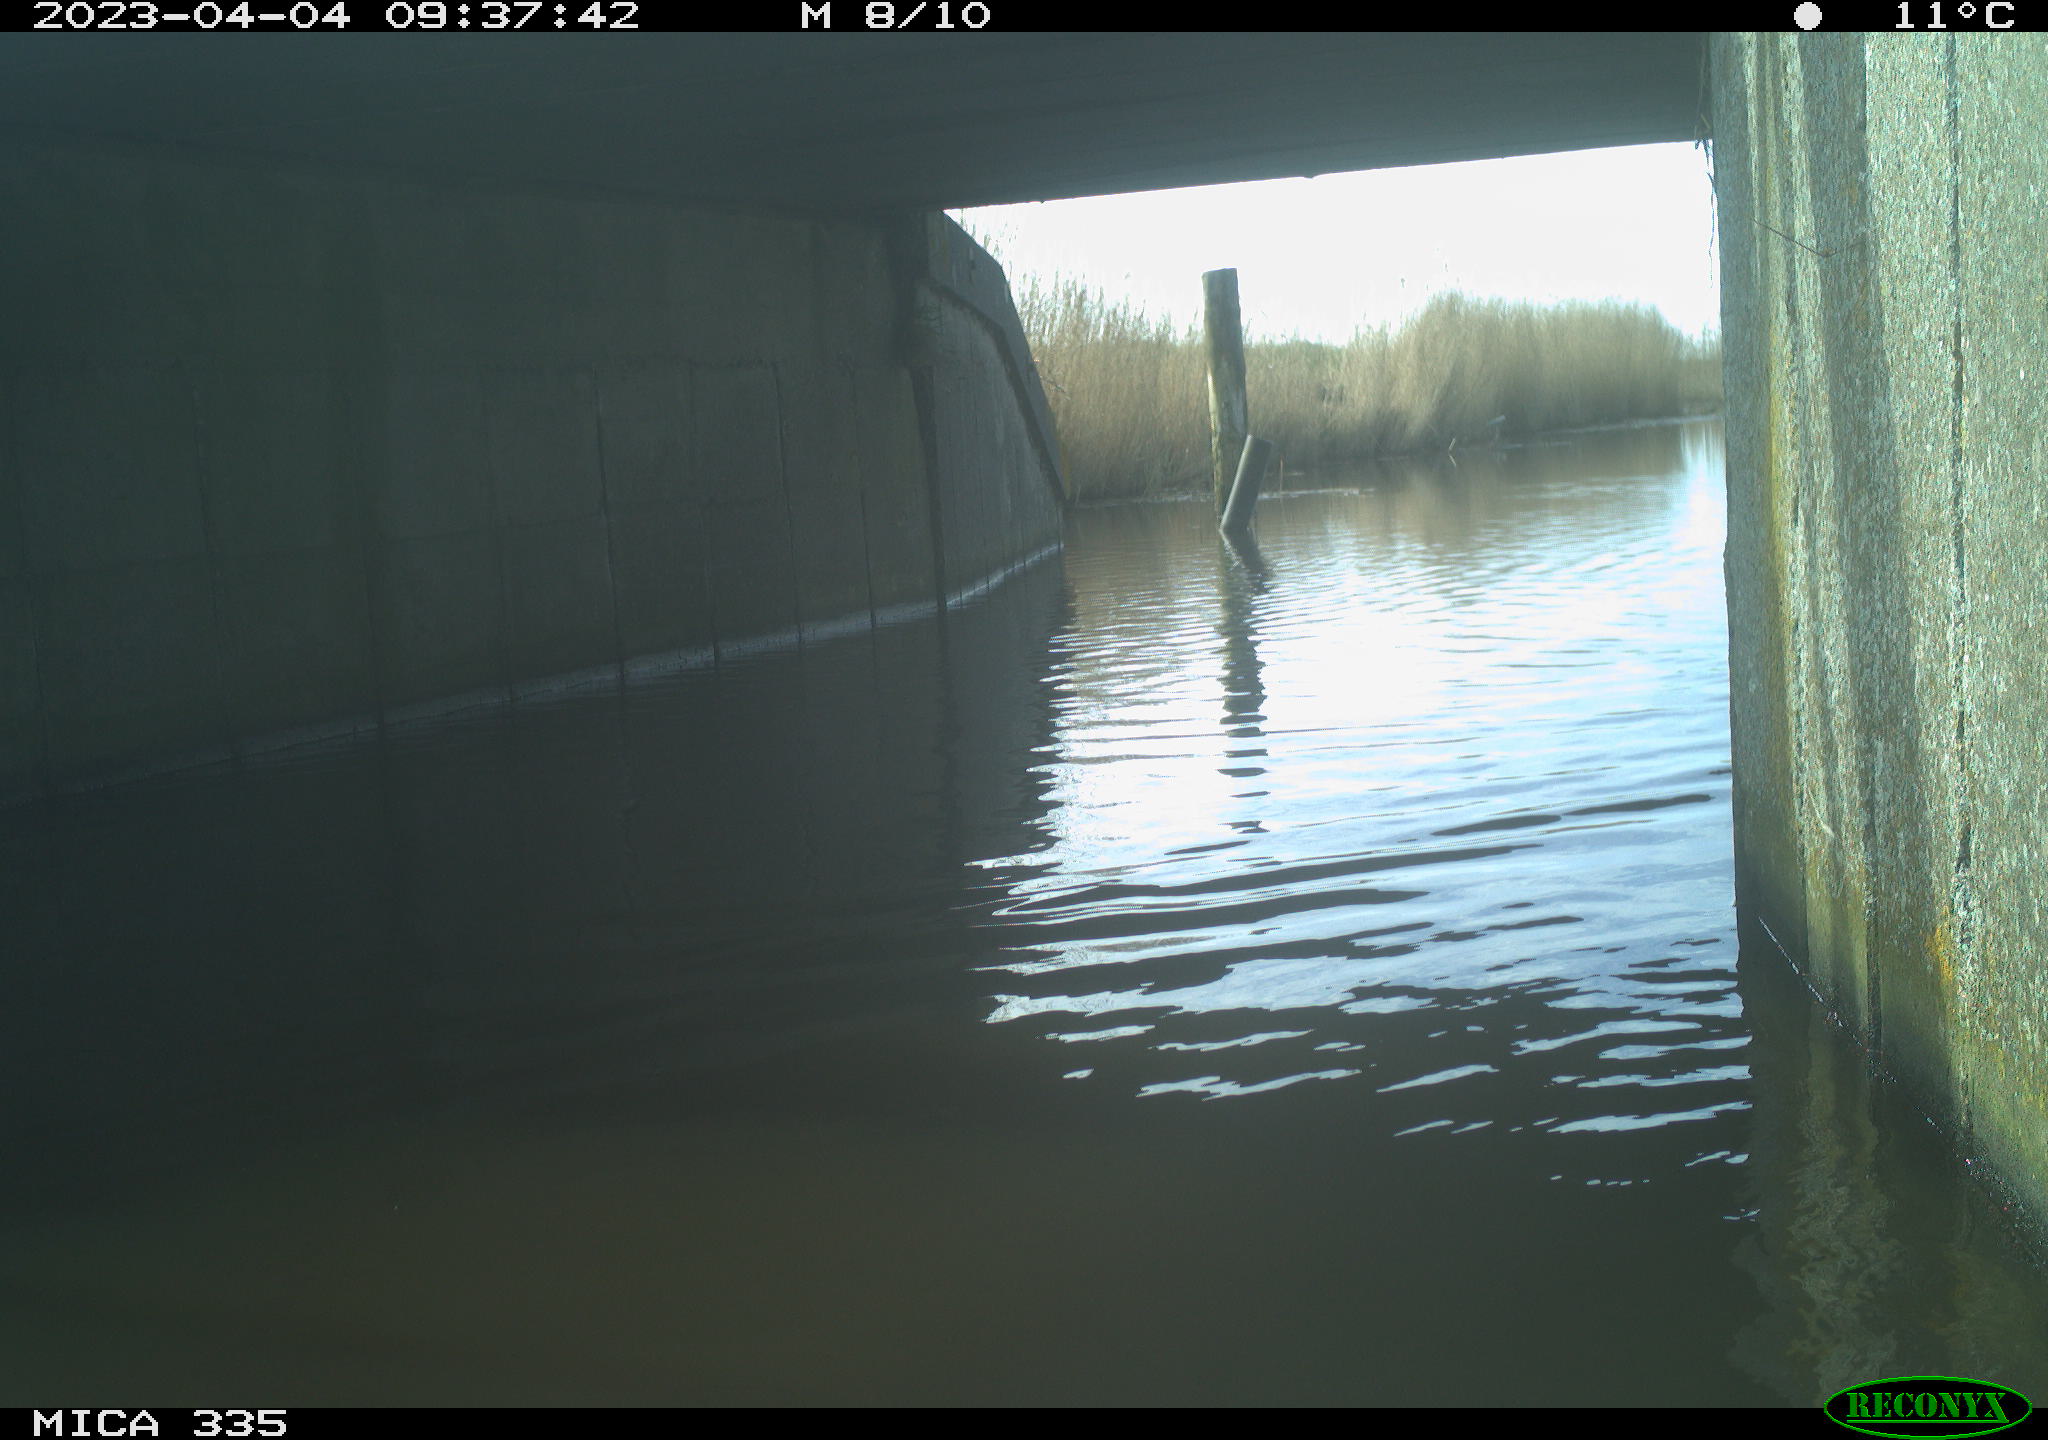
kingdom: Animalia
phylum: Chordata
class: Aves
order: Anseriformes
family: Anatidae
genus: Anas
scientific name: Anas
